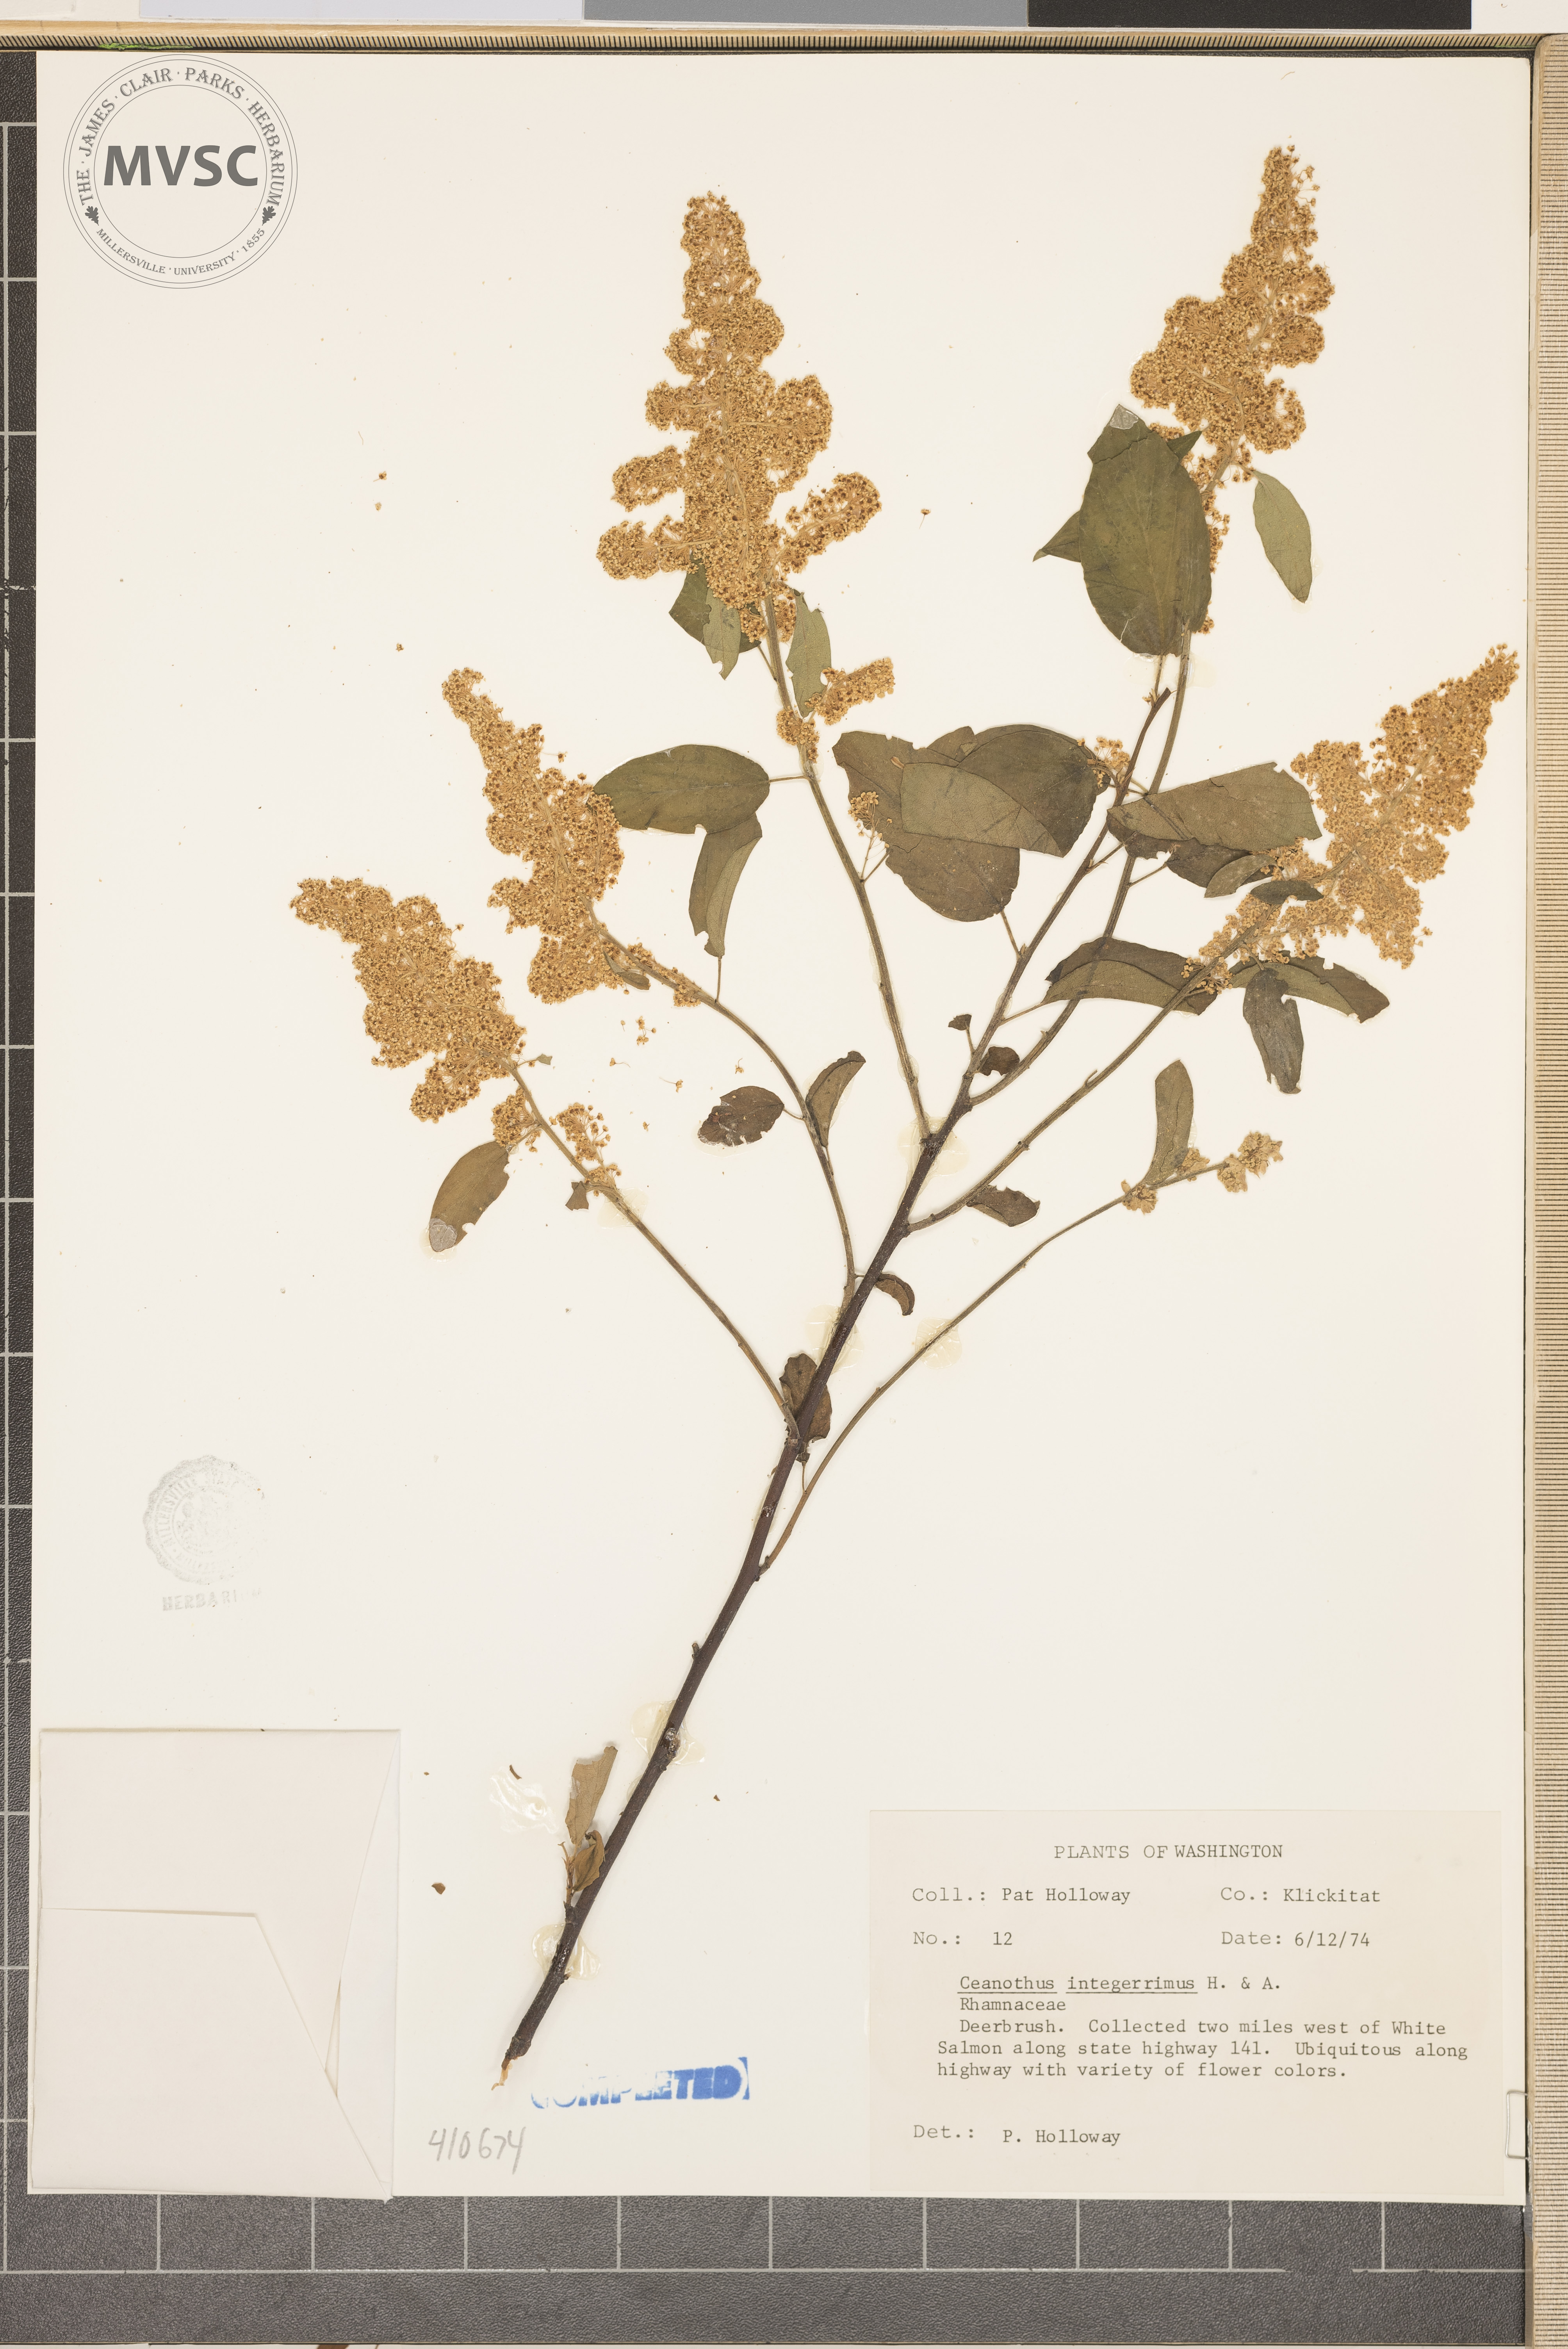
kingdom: Plantae
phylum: Tracheophyta
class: Magnoliopsida
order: Rosales
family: Rhamnaceae
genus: Ceanothus
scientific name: Ceanothus integerrimus
